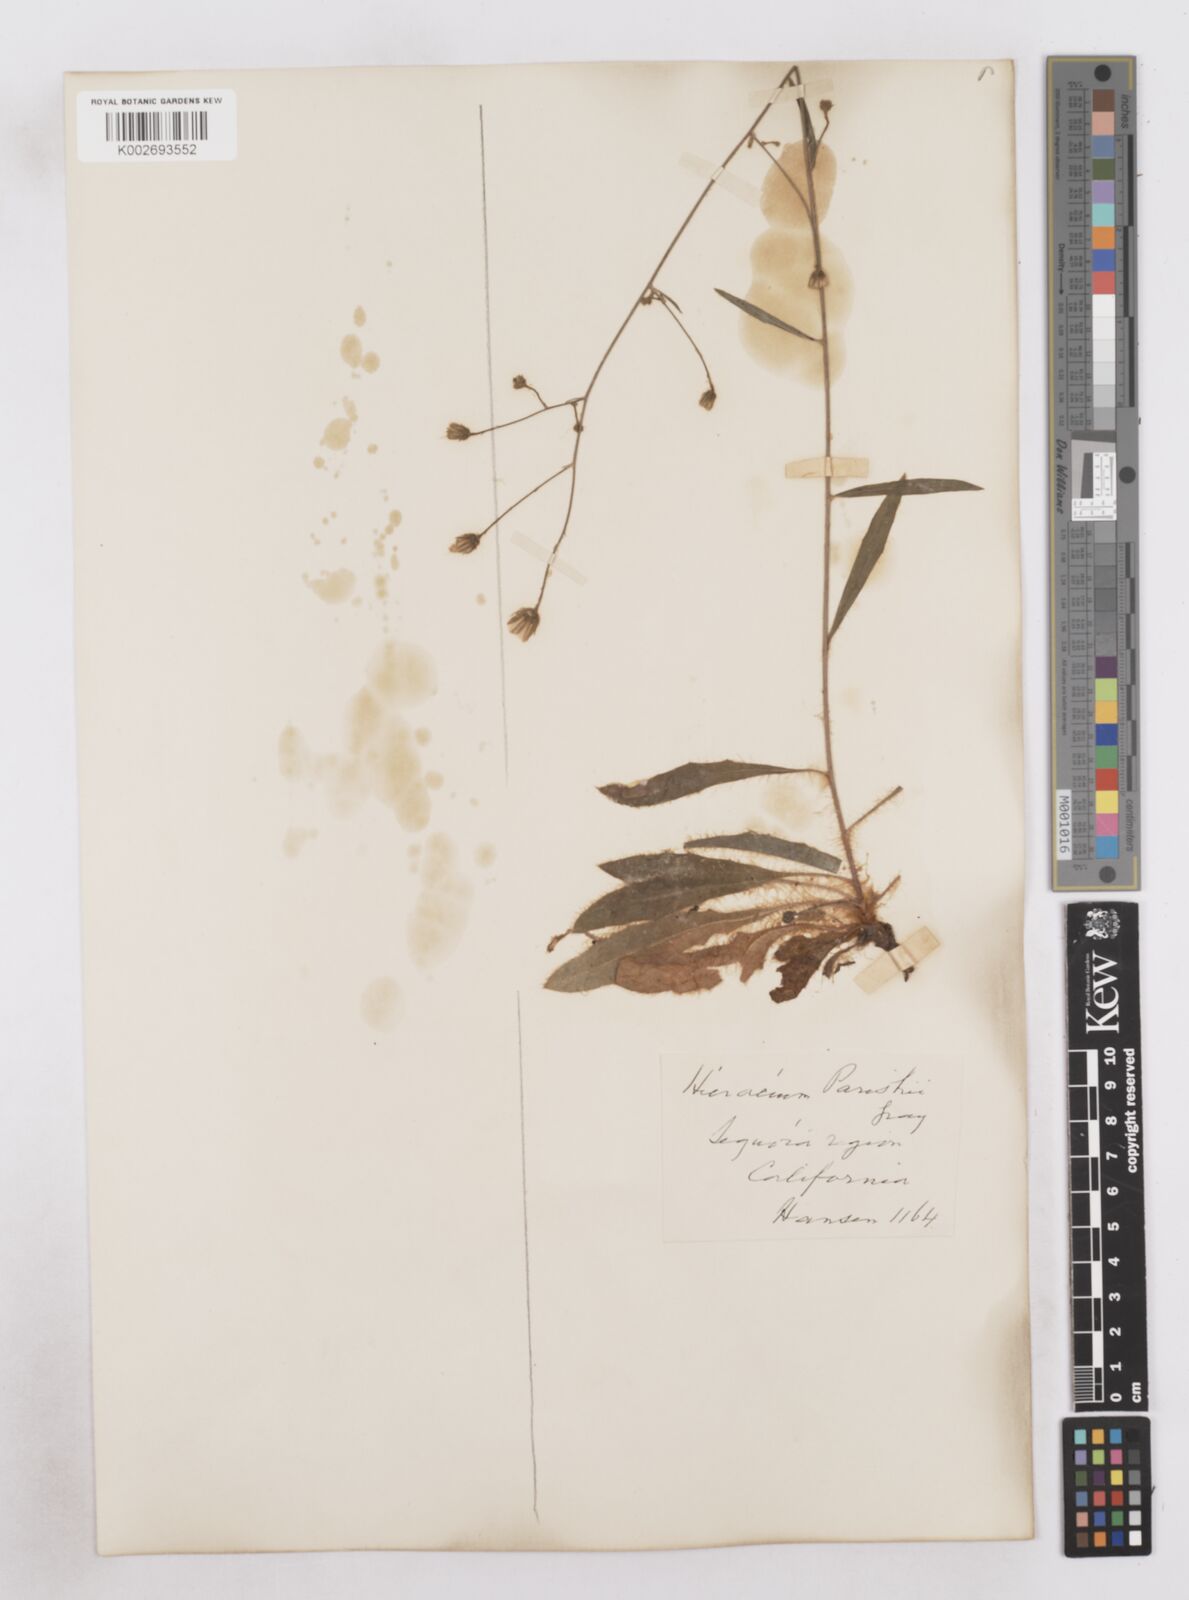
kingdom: Plantae
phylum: Tracheophyta
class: Magnoliopsida
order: Asterales
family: Asteraceae
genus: Hieracium
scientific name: Hieracium
